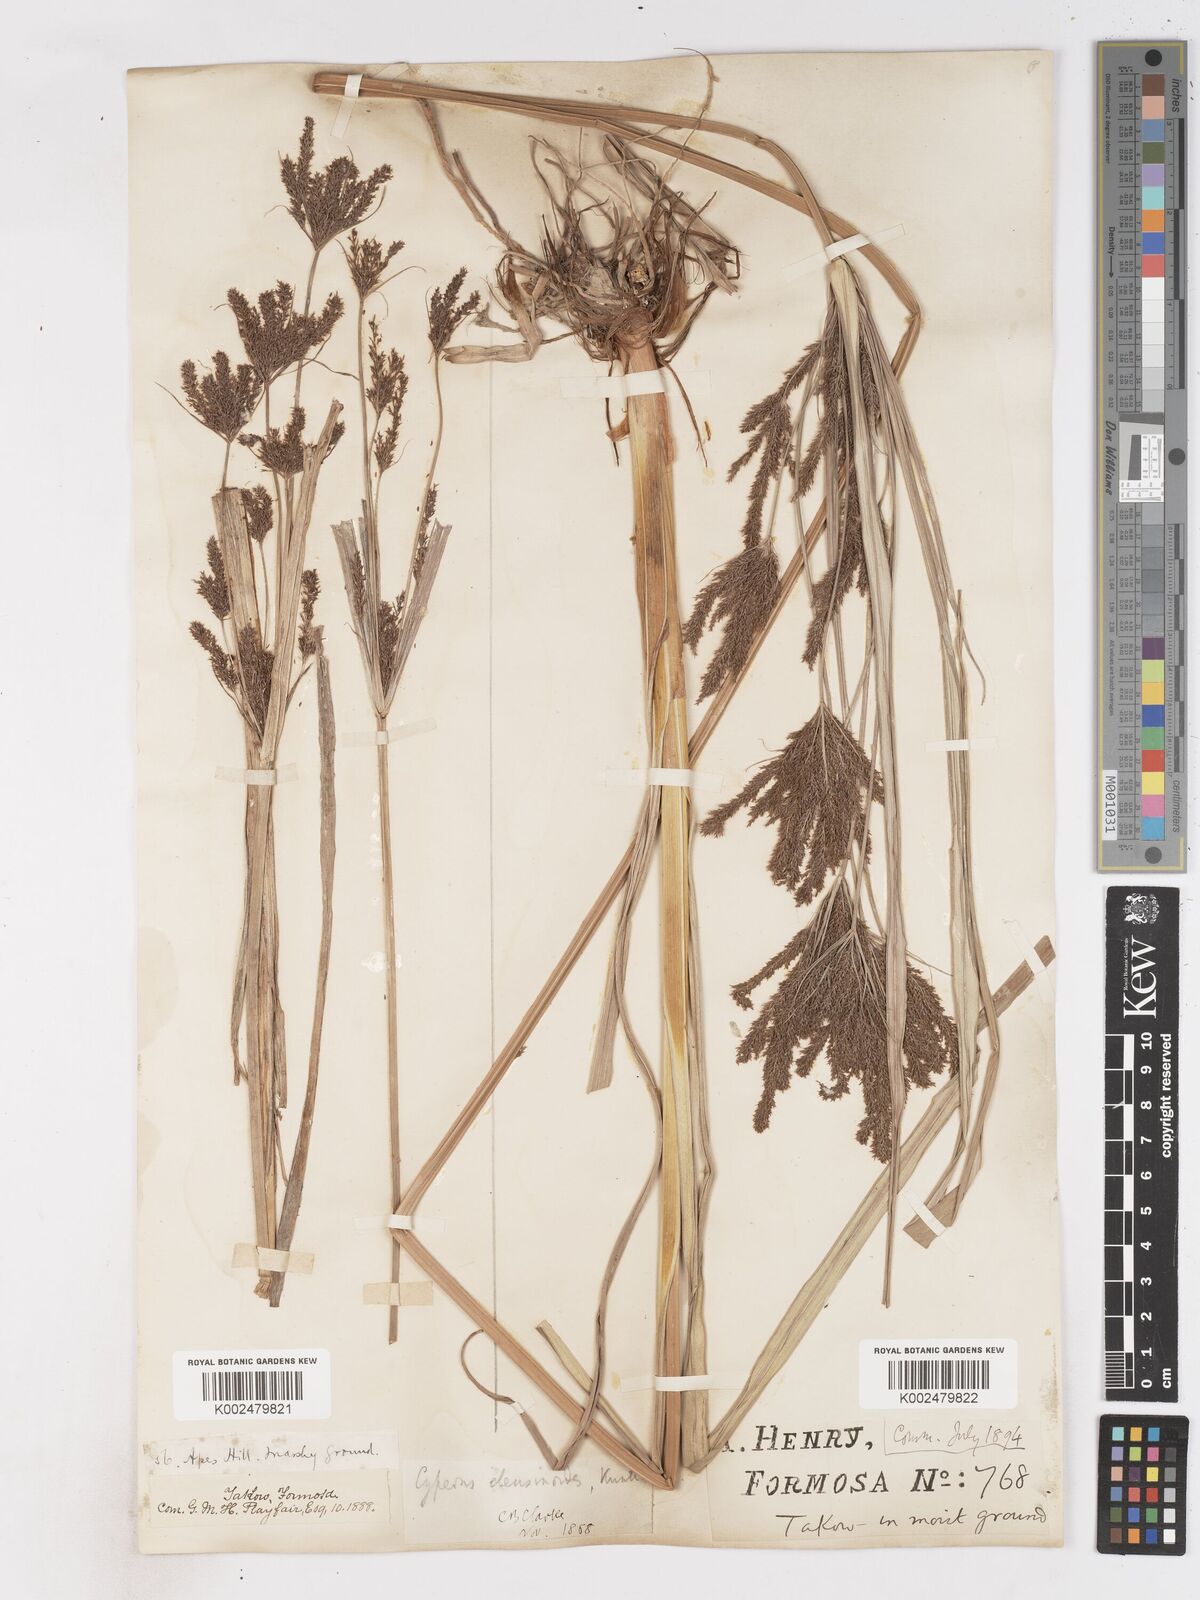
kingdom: Plantae
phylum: Tracheophyta
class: Liliopsida
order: Poales
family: Cyperaceae
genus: Cyperus
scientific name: Cyperus nutans
